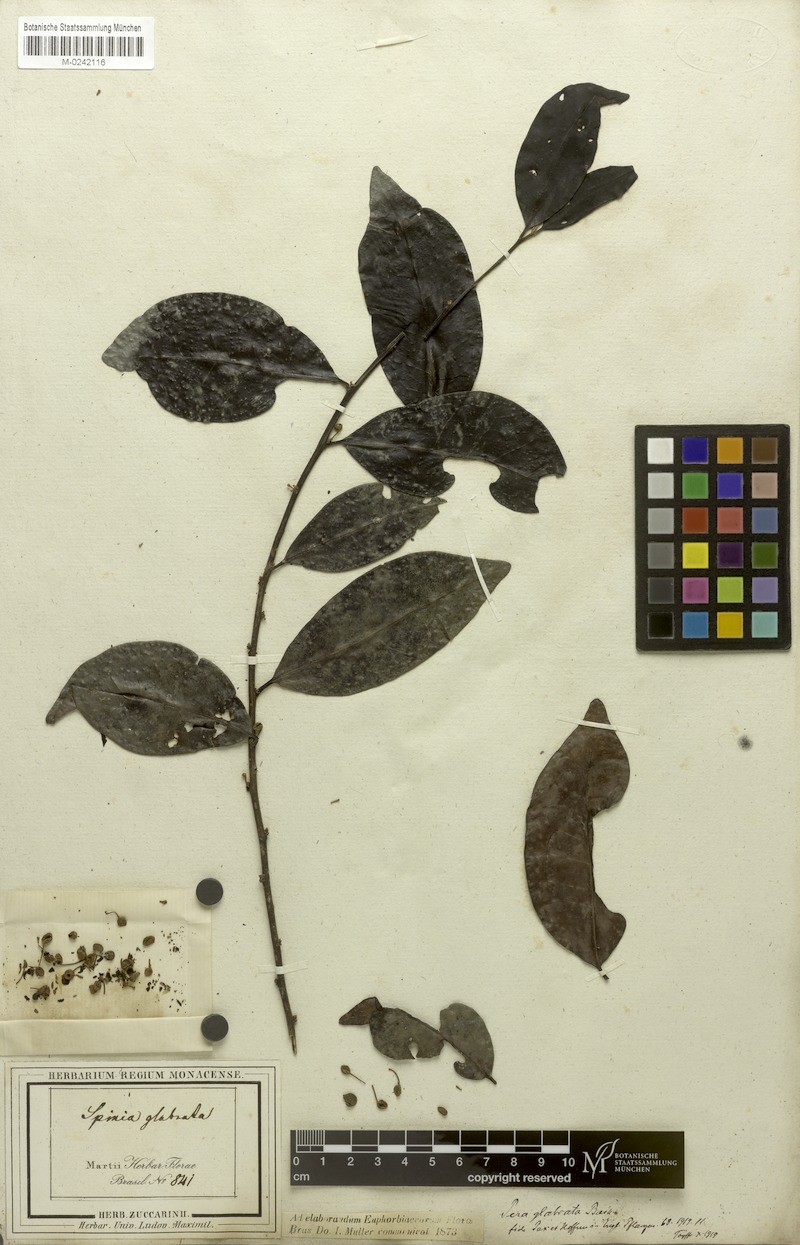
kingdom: Plantae
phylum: Tracheophyta
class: Magnoliopsida
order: Malpighiales
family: Peraceae
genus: Pera
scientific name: Pera glabrata
